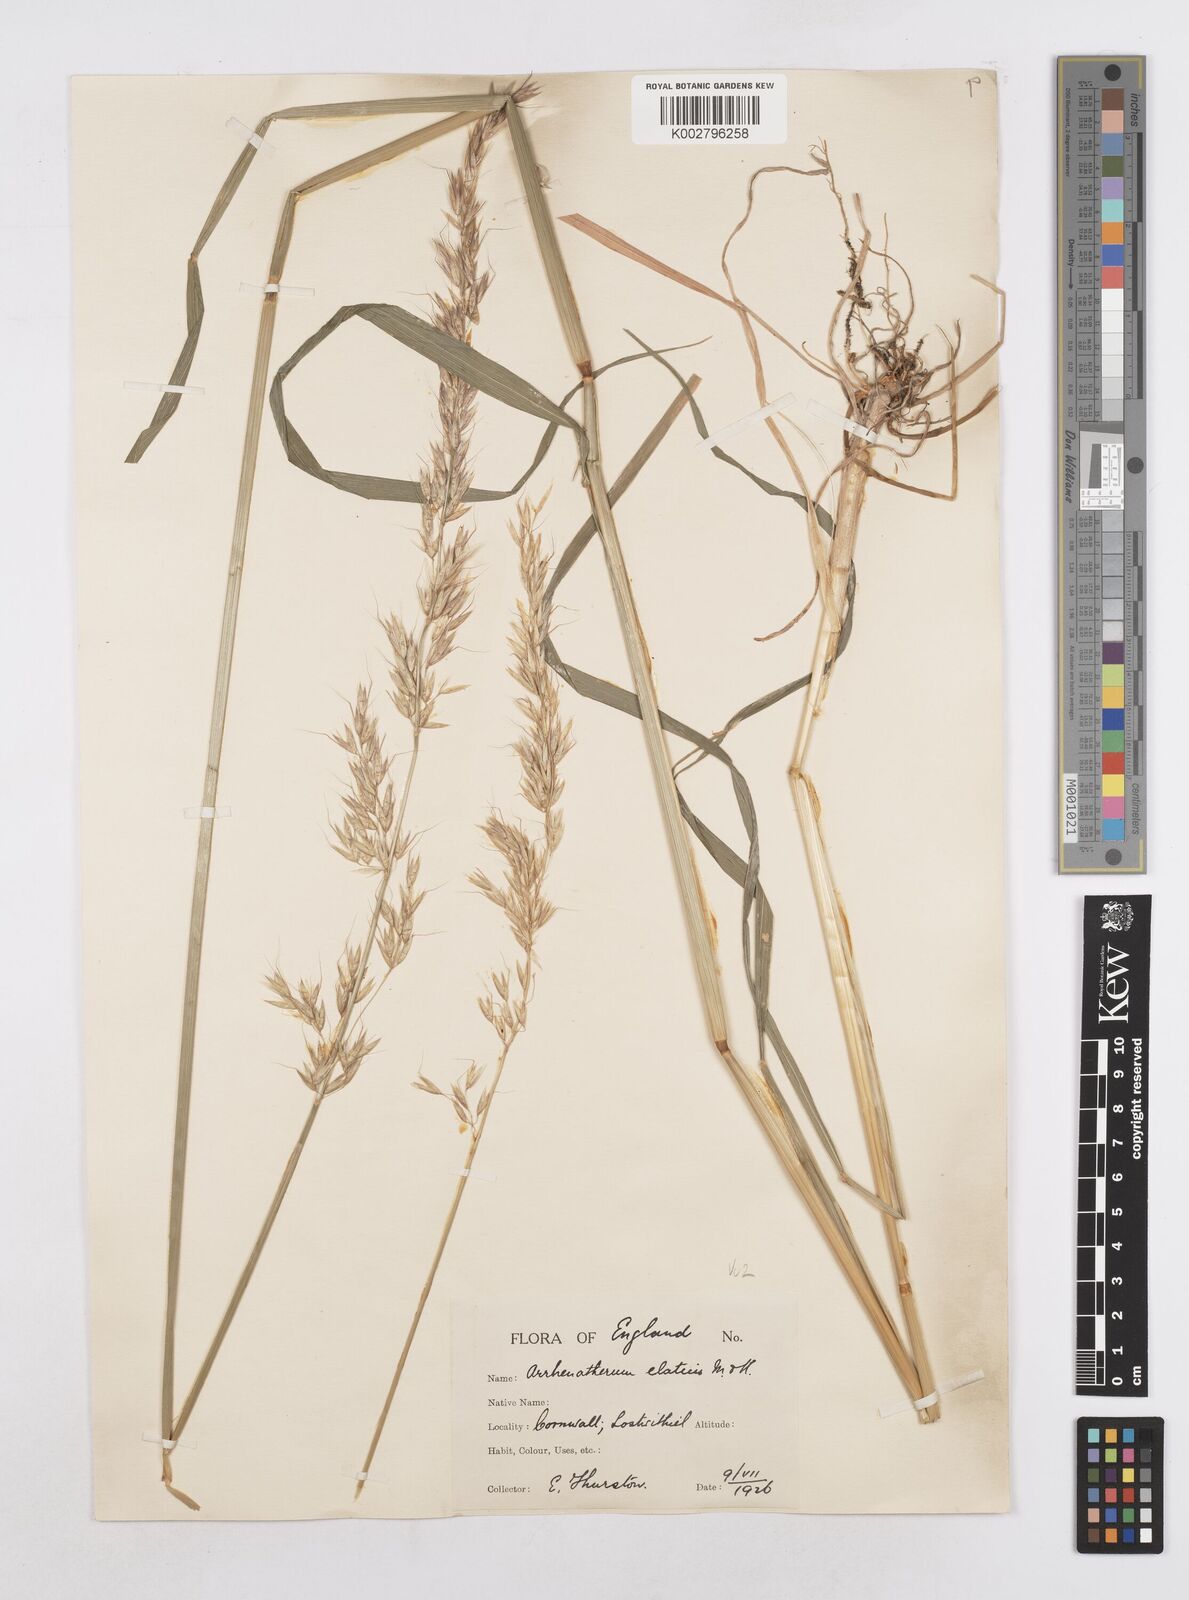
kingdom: Plantae
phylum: Tracheophyta
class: Liliopsida
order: Poales
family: Poaceae
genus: Arrhenatherum
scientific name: Arrhenatherum elatius
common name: Tall oatgrass
